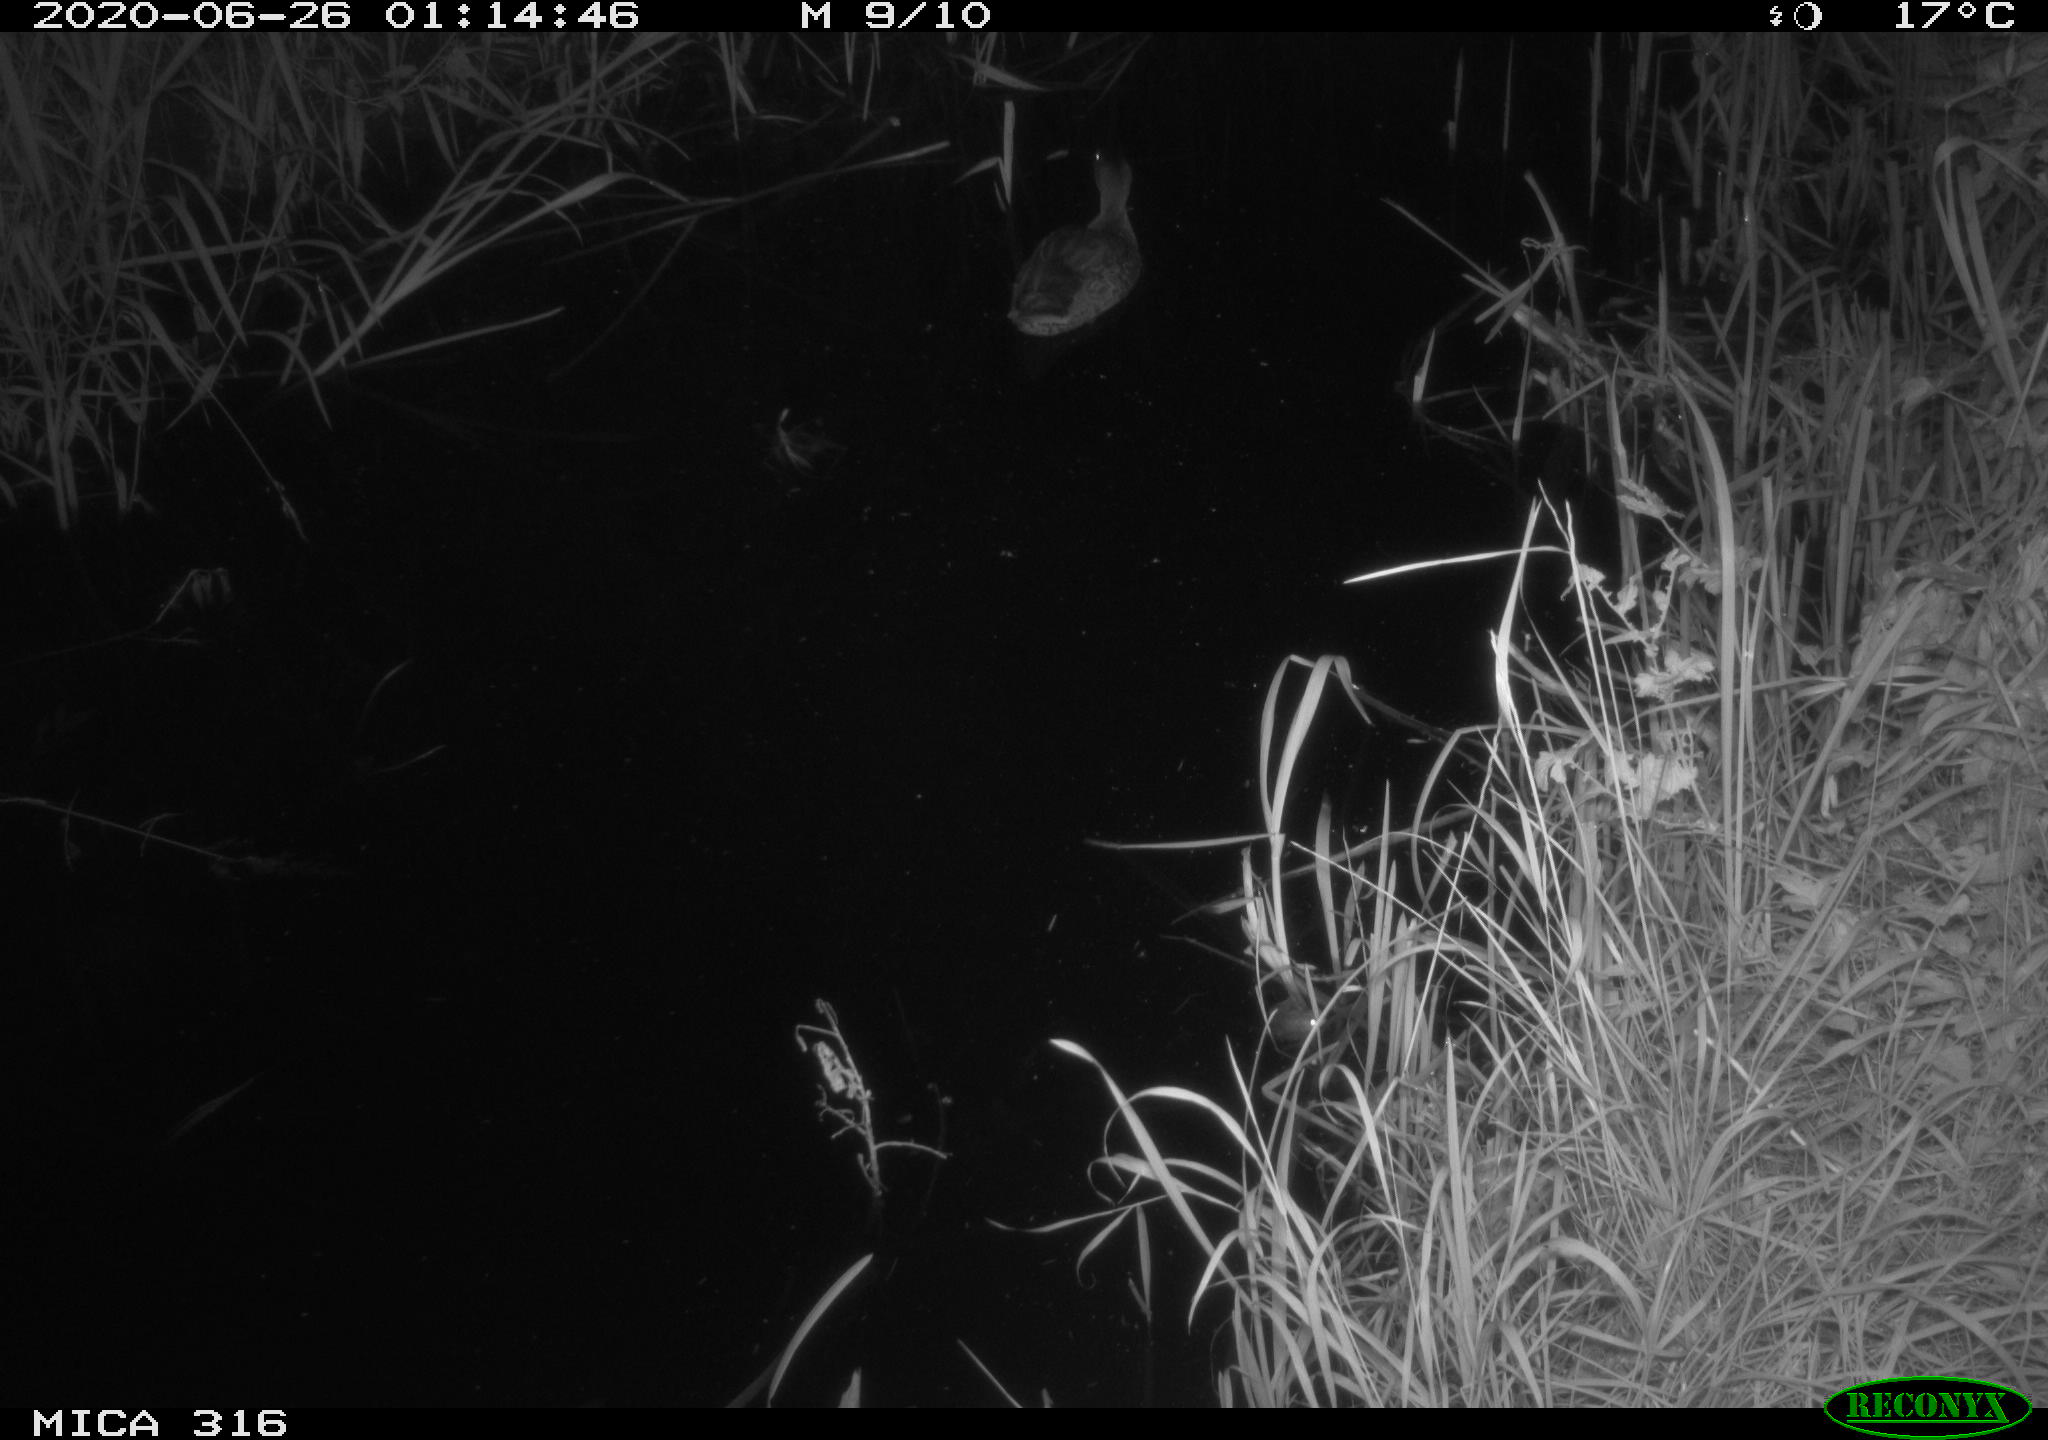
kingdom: Animalia
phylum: Chordata
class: Aves
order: Anseriformes
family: Anatidae
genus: Anas
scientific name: Anas platyrhynchos
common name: Mallard
